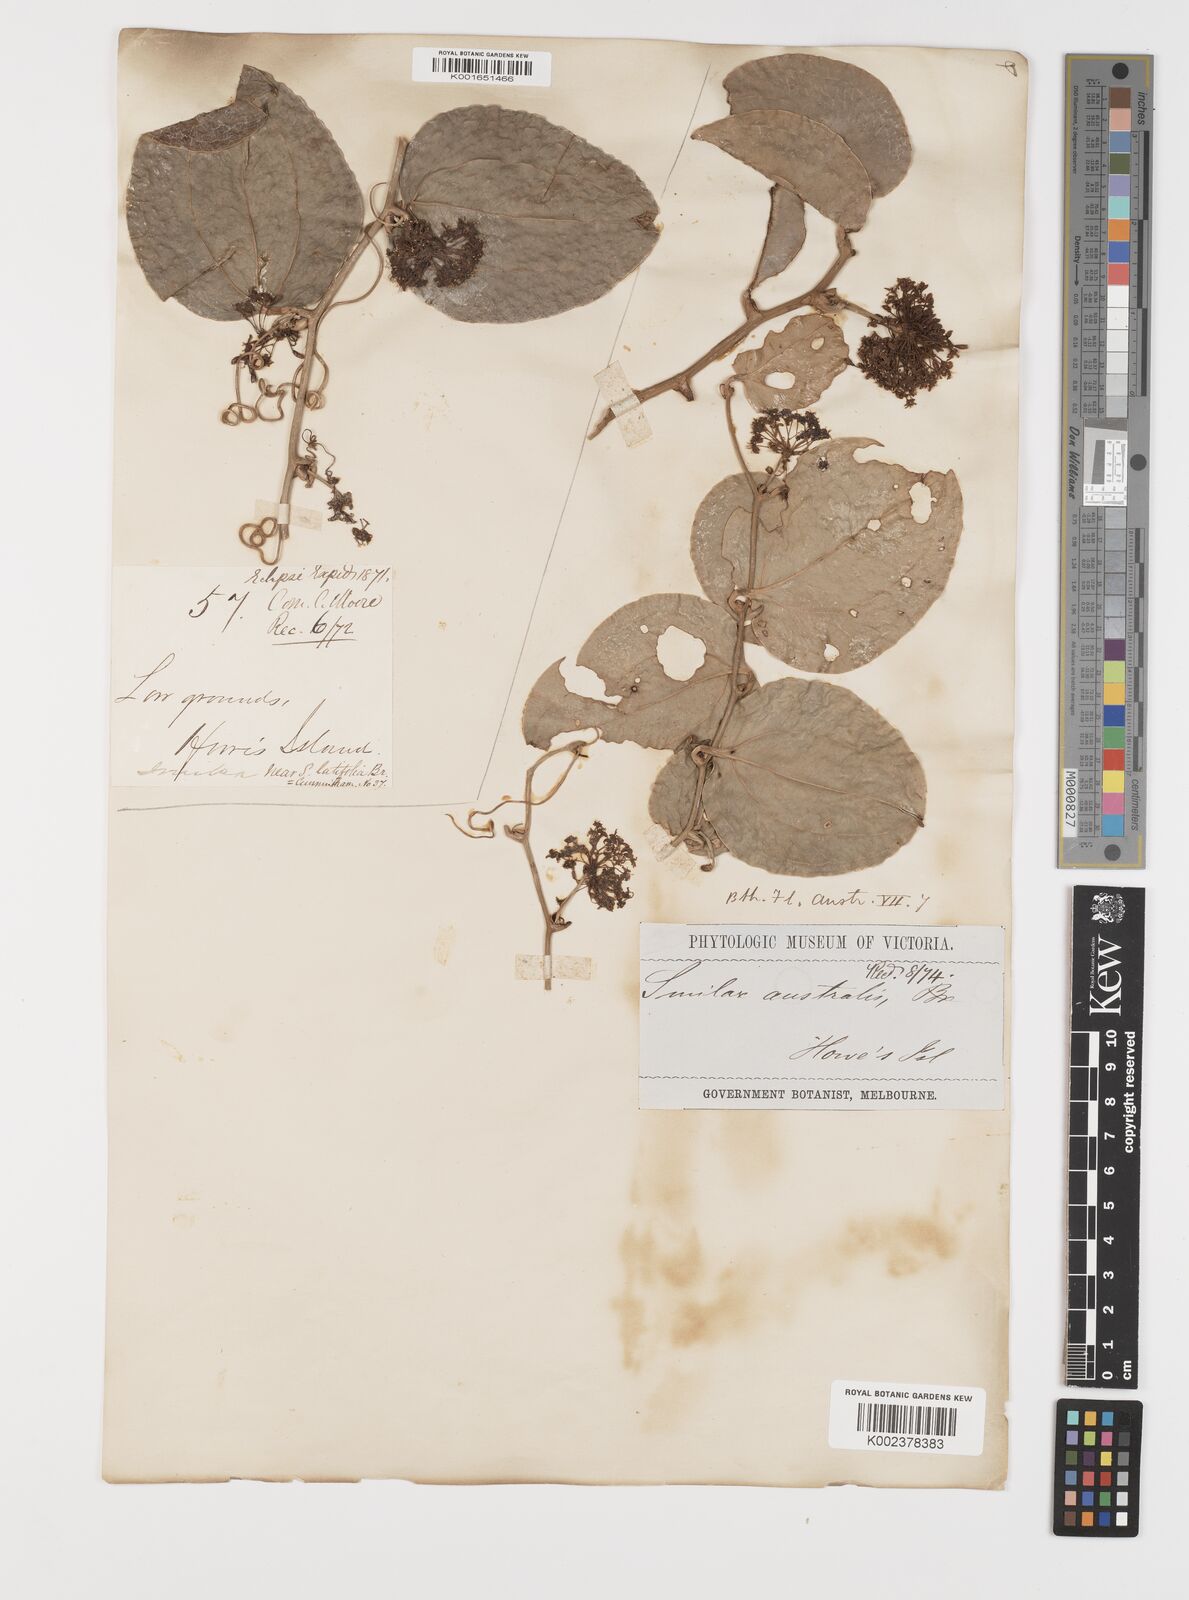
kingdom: Plantae
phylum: Tracheophyta
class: Liliopsida
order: Liliales
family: Smilacaceae
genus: Smilax
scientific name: Smilax australis
